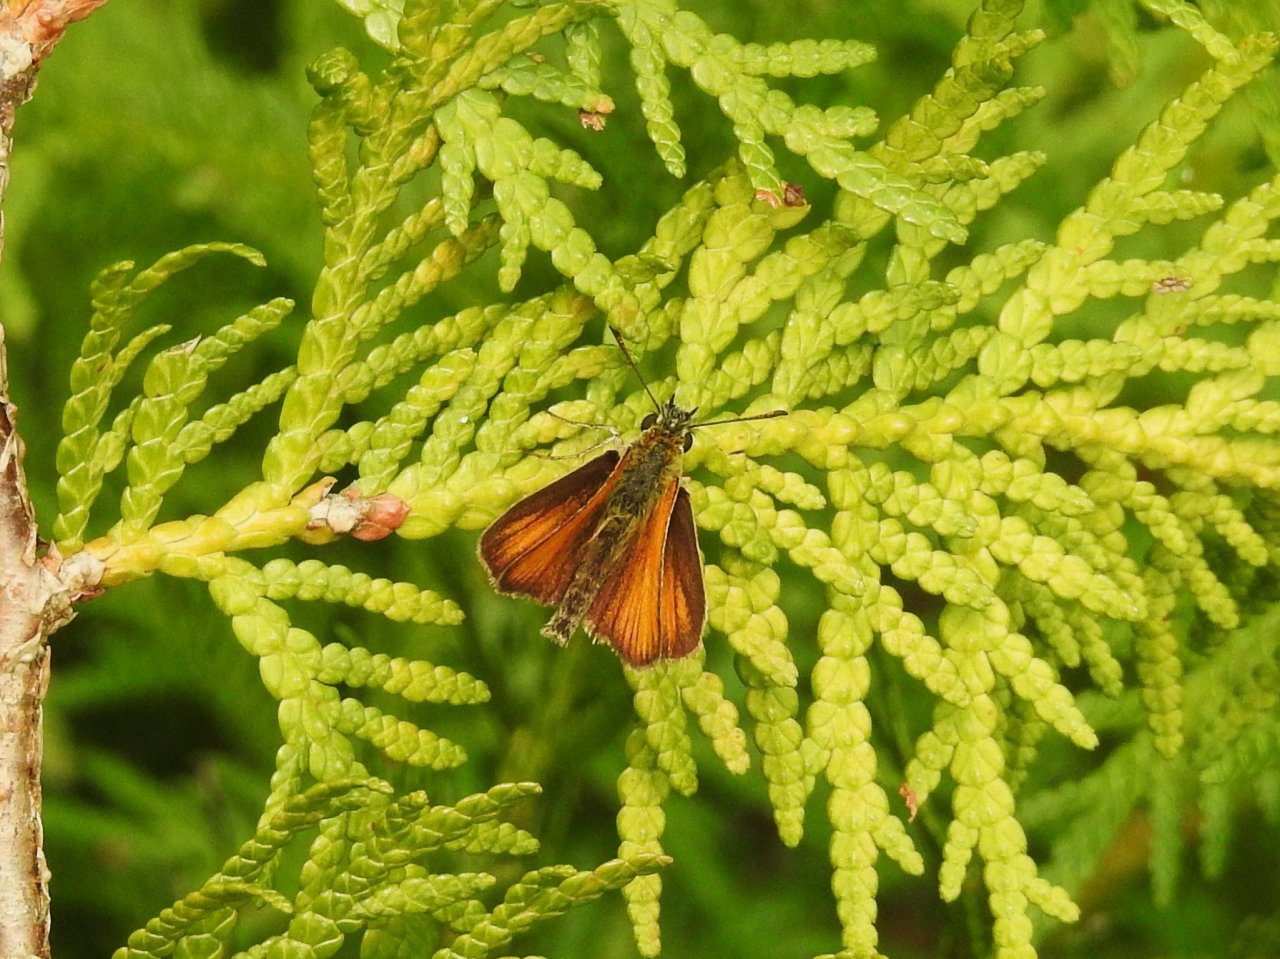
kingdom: Animalia
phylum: Arthropoda
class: Insecta
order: Lepidoptera
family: Hesperiidae
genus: Thymelicus
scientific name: Thymelicus lineola
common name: European Skipper
